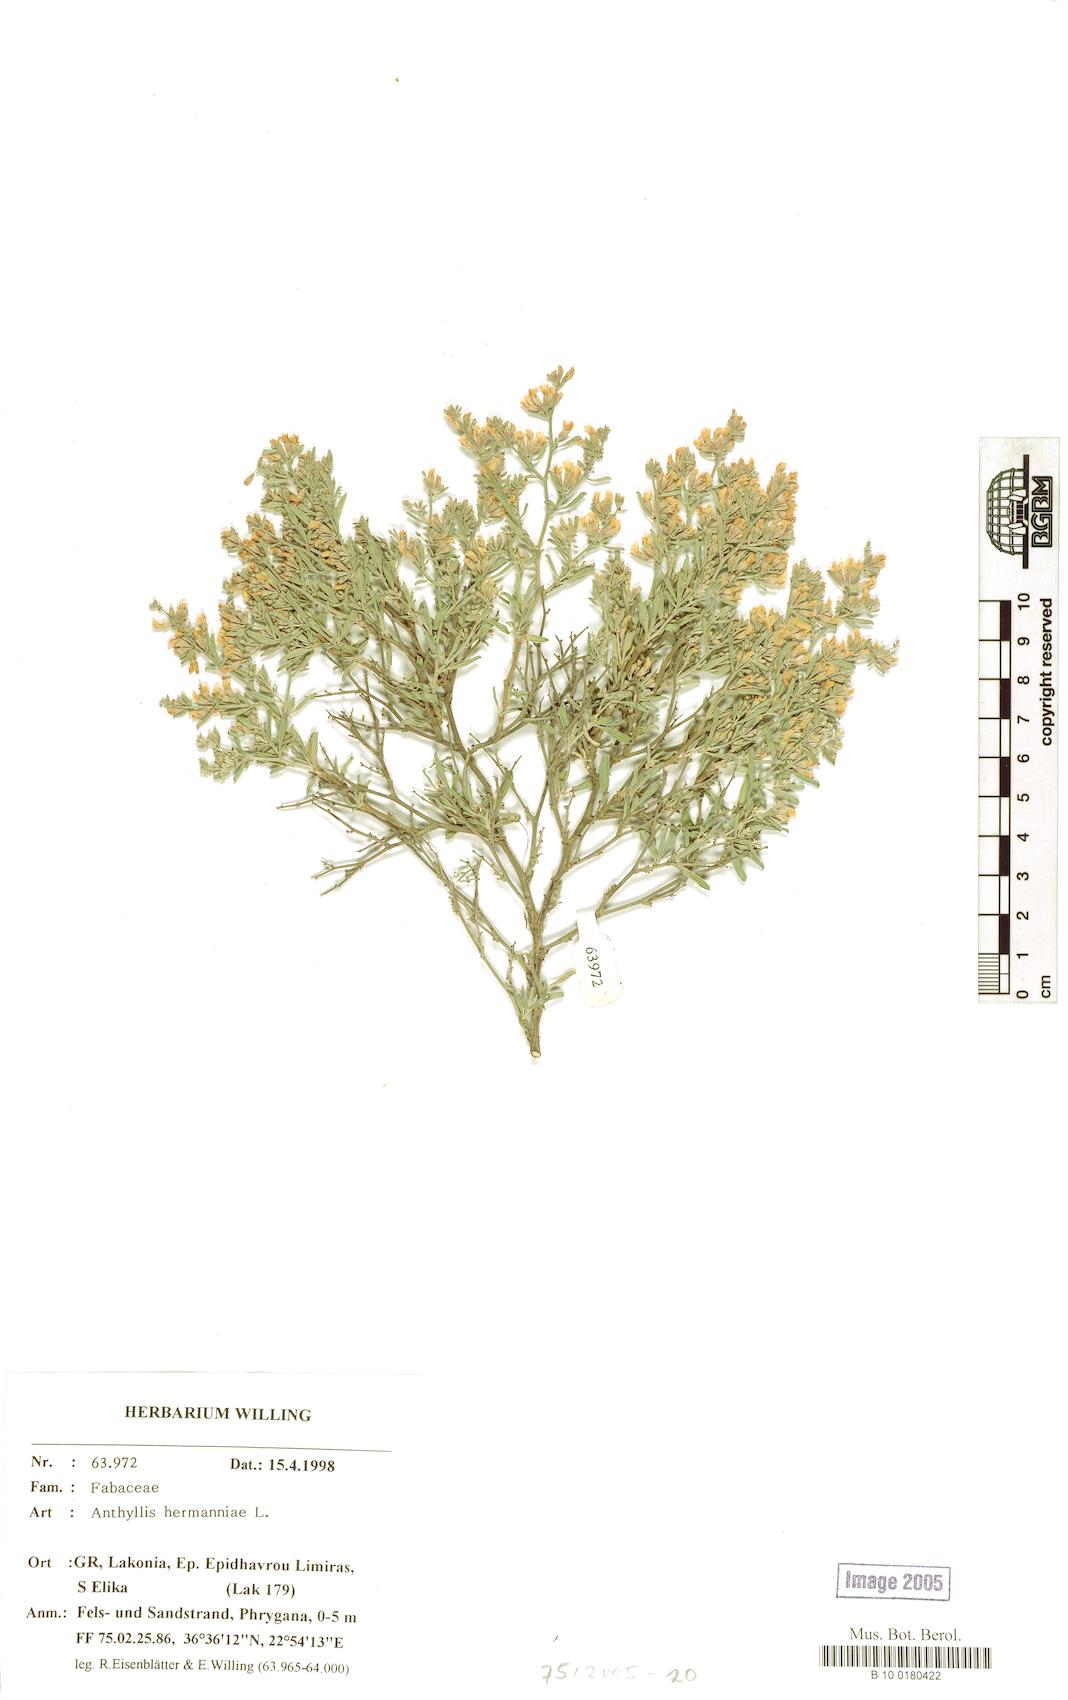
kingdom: Plantae
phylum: Tracheophyta
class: Magnoliopsida
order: Fabales
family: Fabaceae
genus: Anthyllis
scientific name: Anthyllis hermanniae
